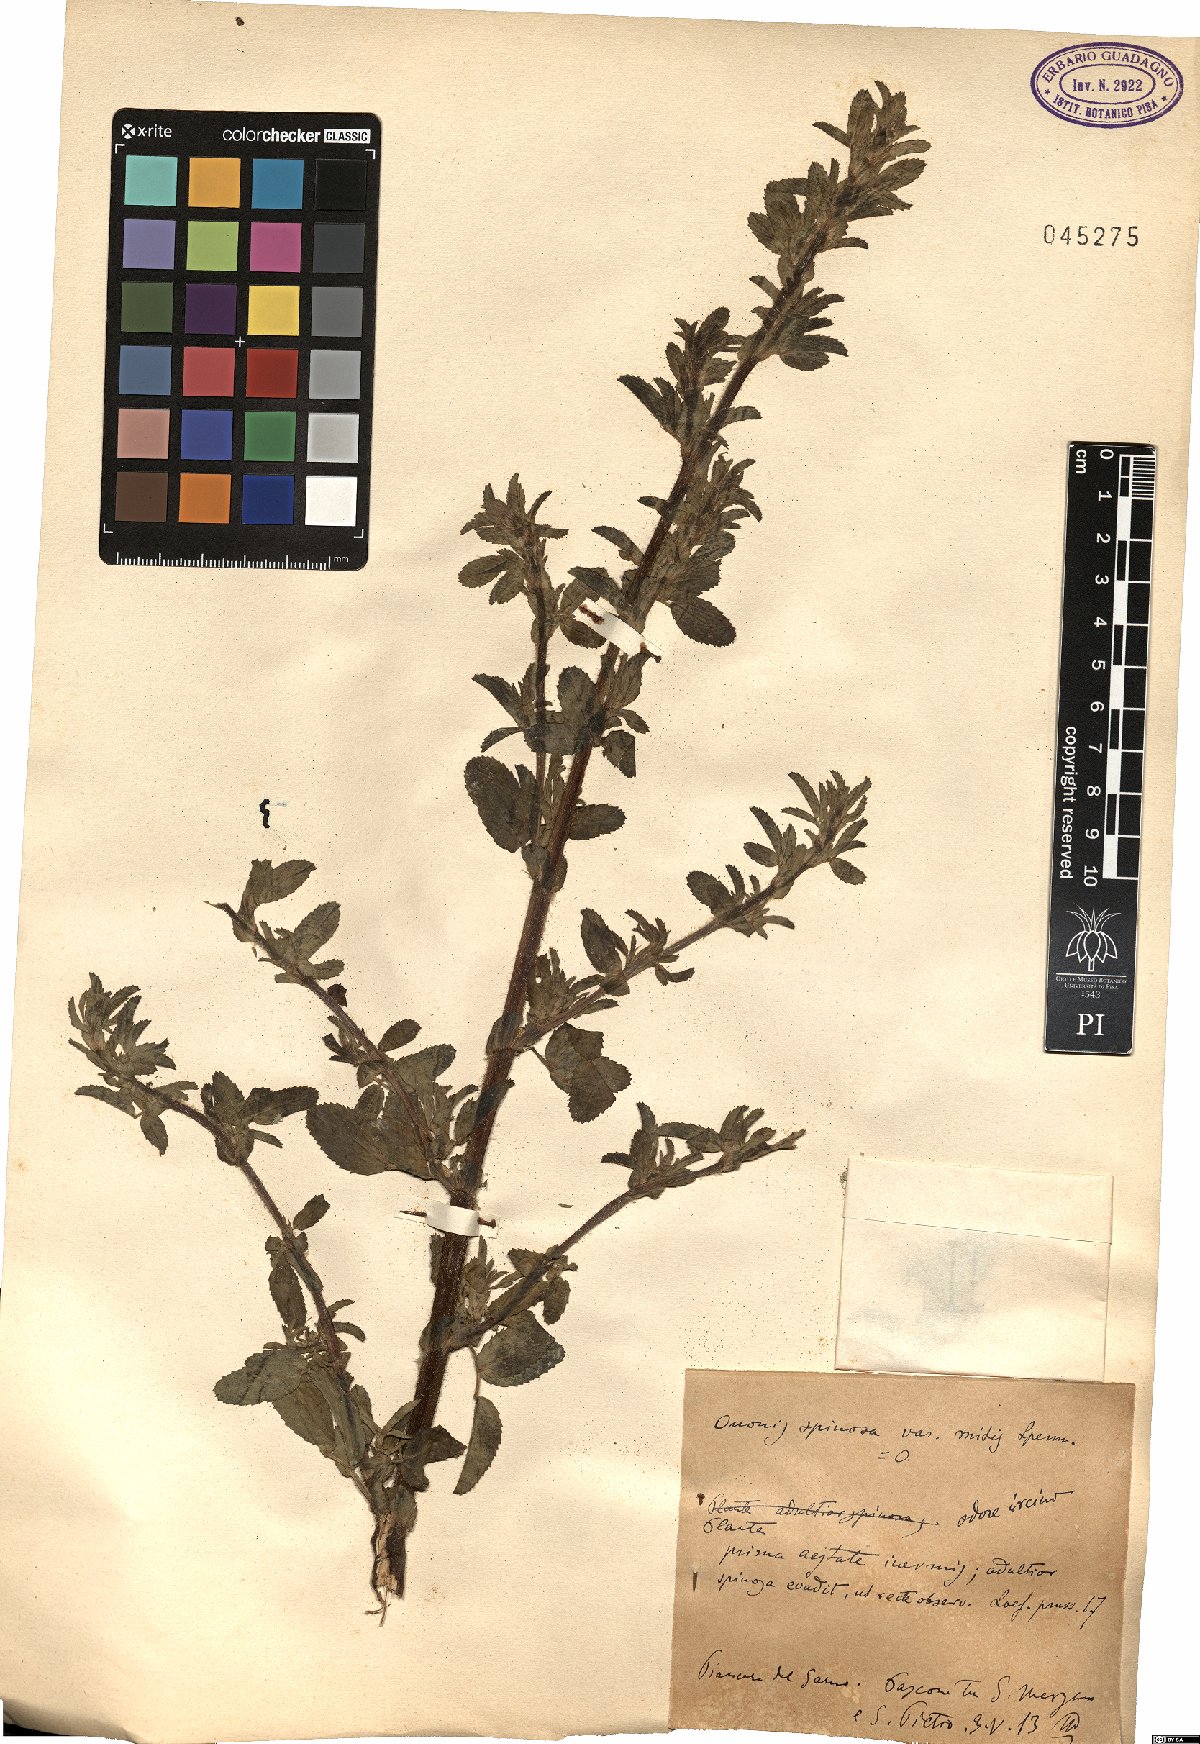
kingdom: Plantae
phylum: Tracheophyta
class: Magnoliopsida
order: Fabales
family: Fabaceae
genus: Ononis
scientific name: Ononis arvensis
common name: Field restharrow
